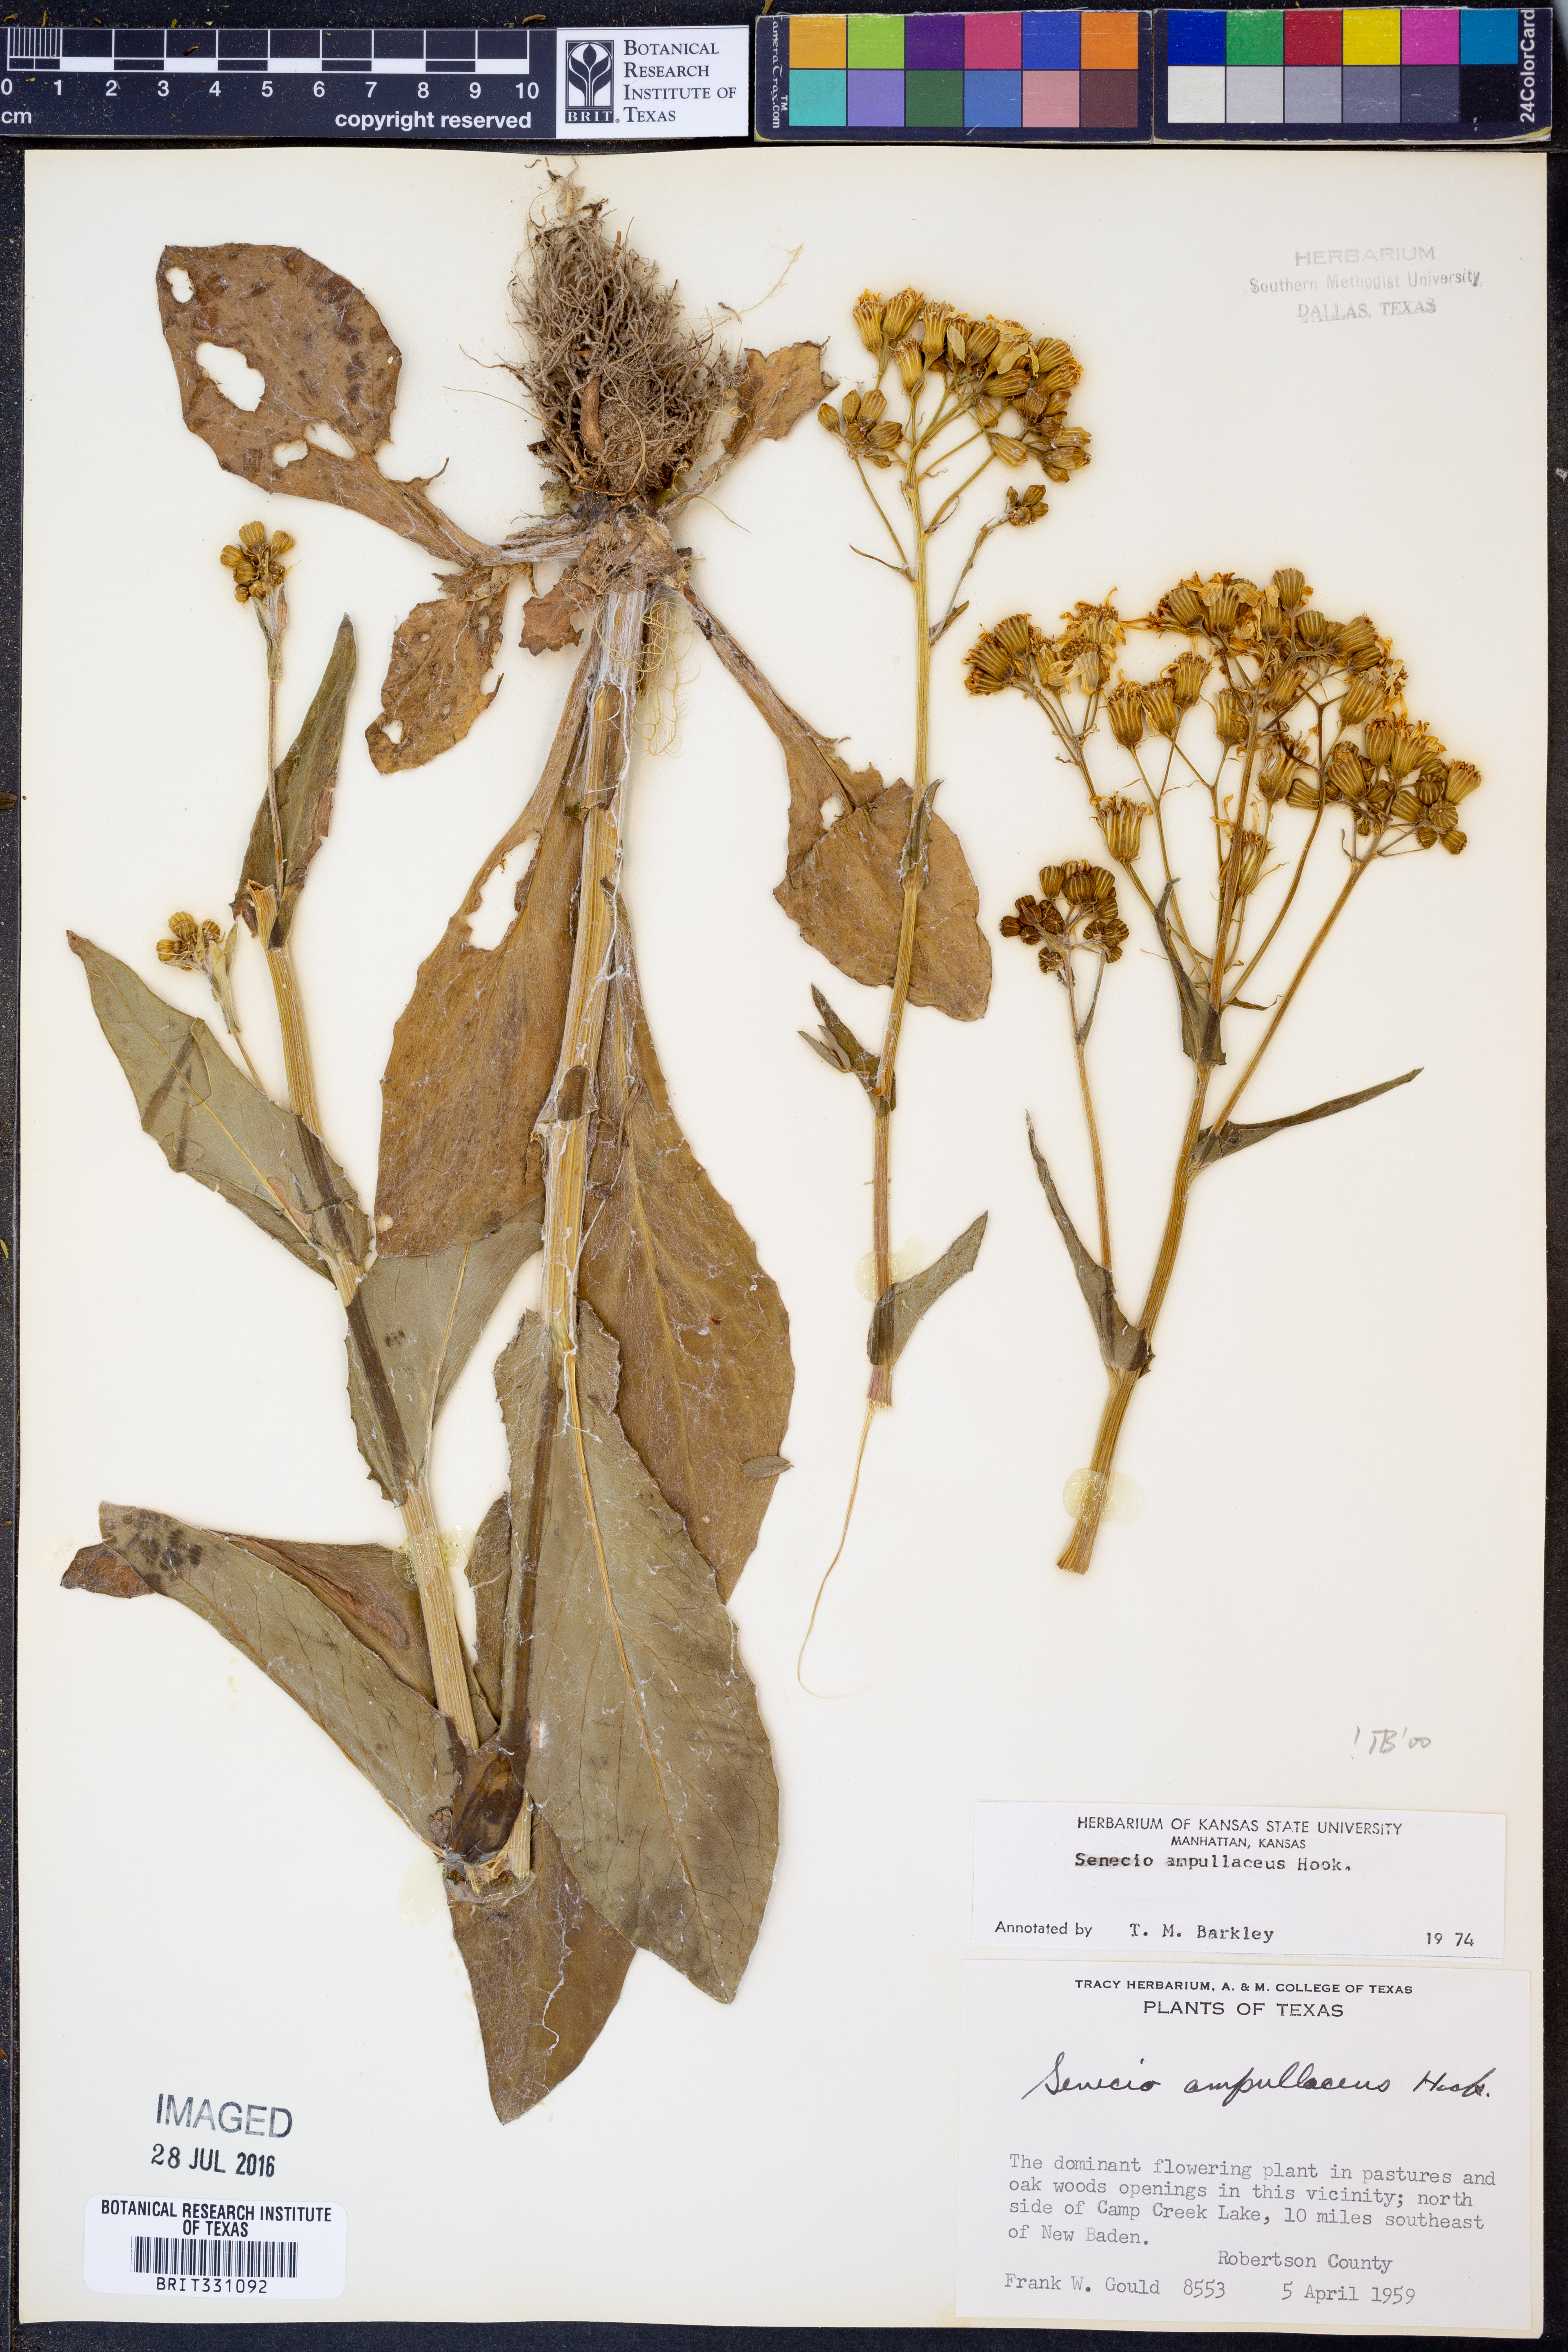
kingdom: Plantae
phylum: Tracheophyta
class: Magnoliopsida
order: Asterales
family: Asteraceae
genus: Senecio
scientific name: Senecio ampullaceus
